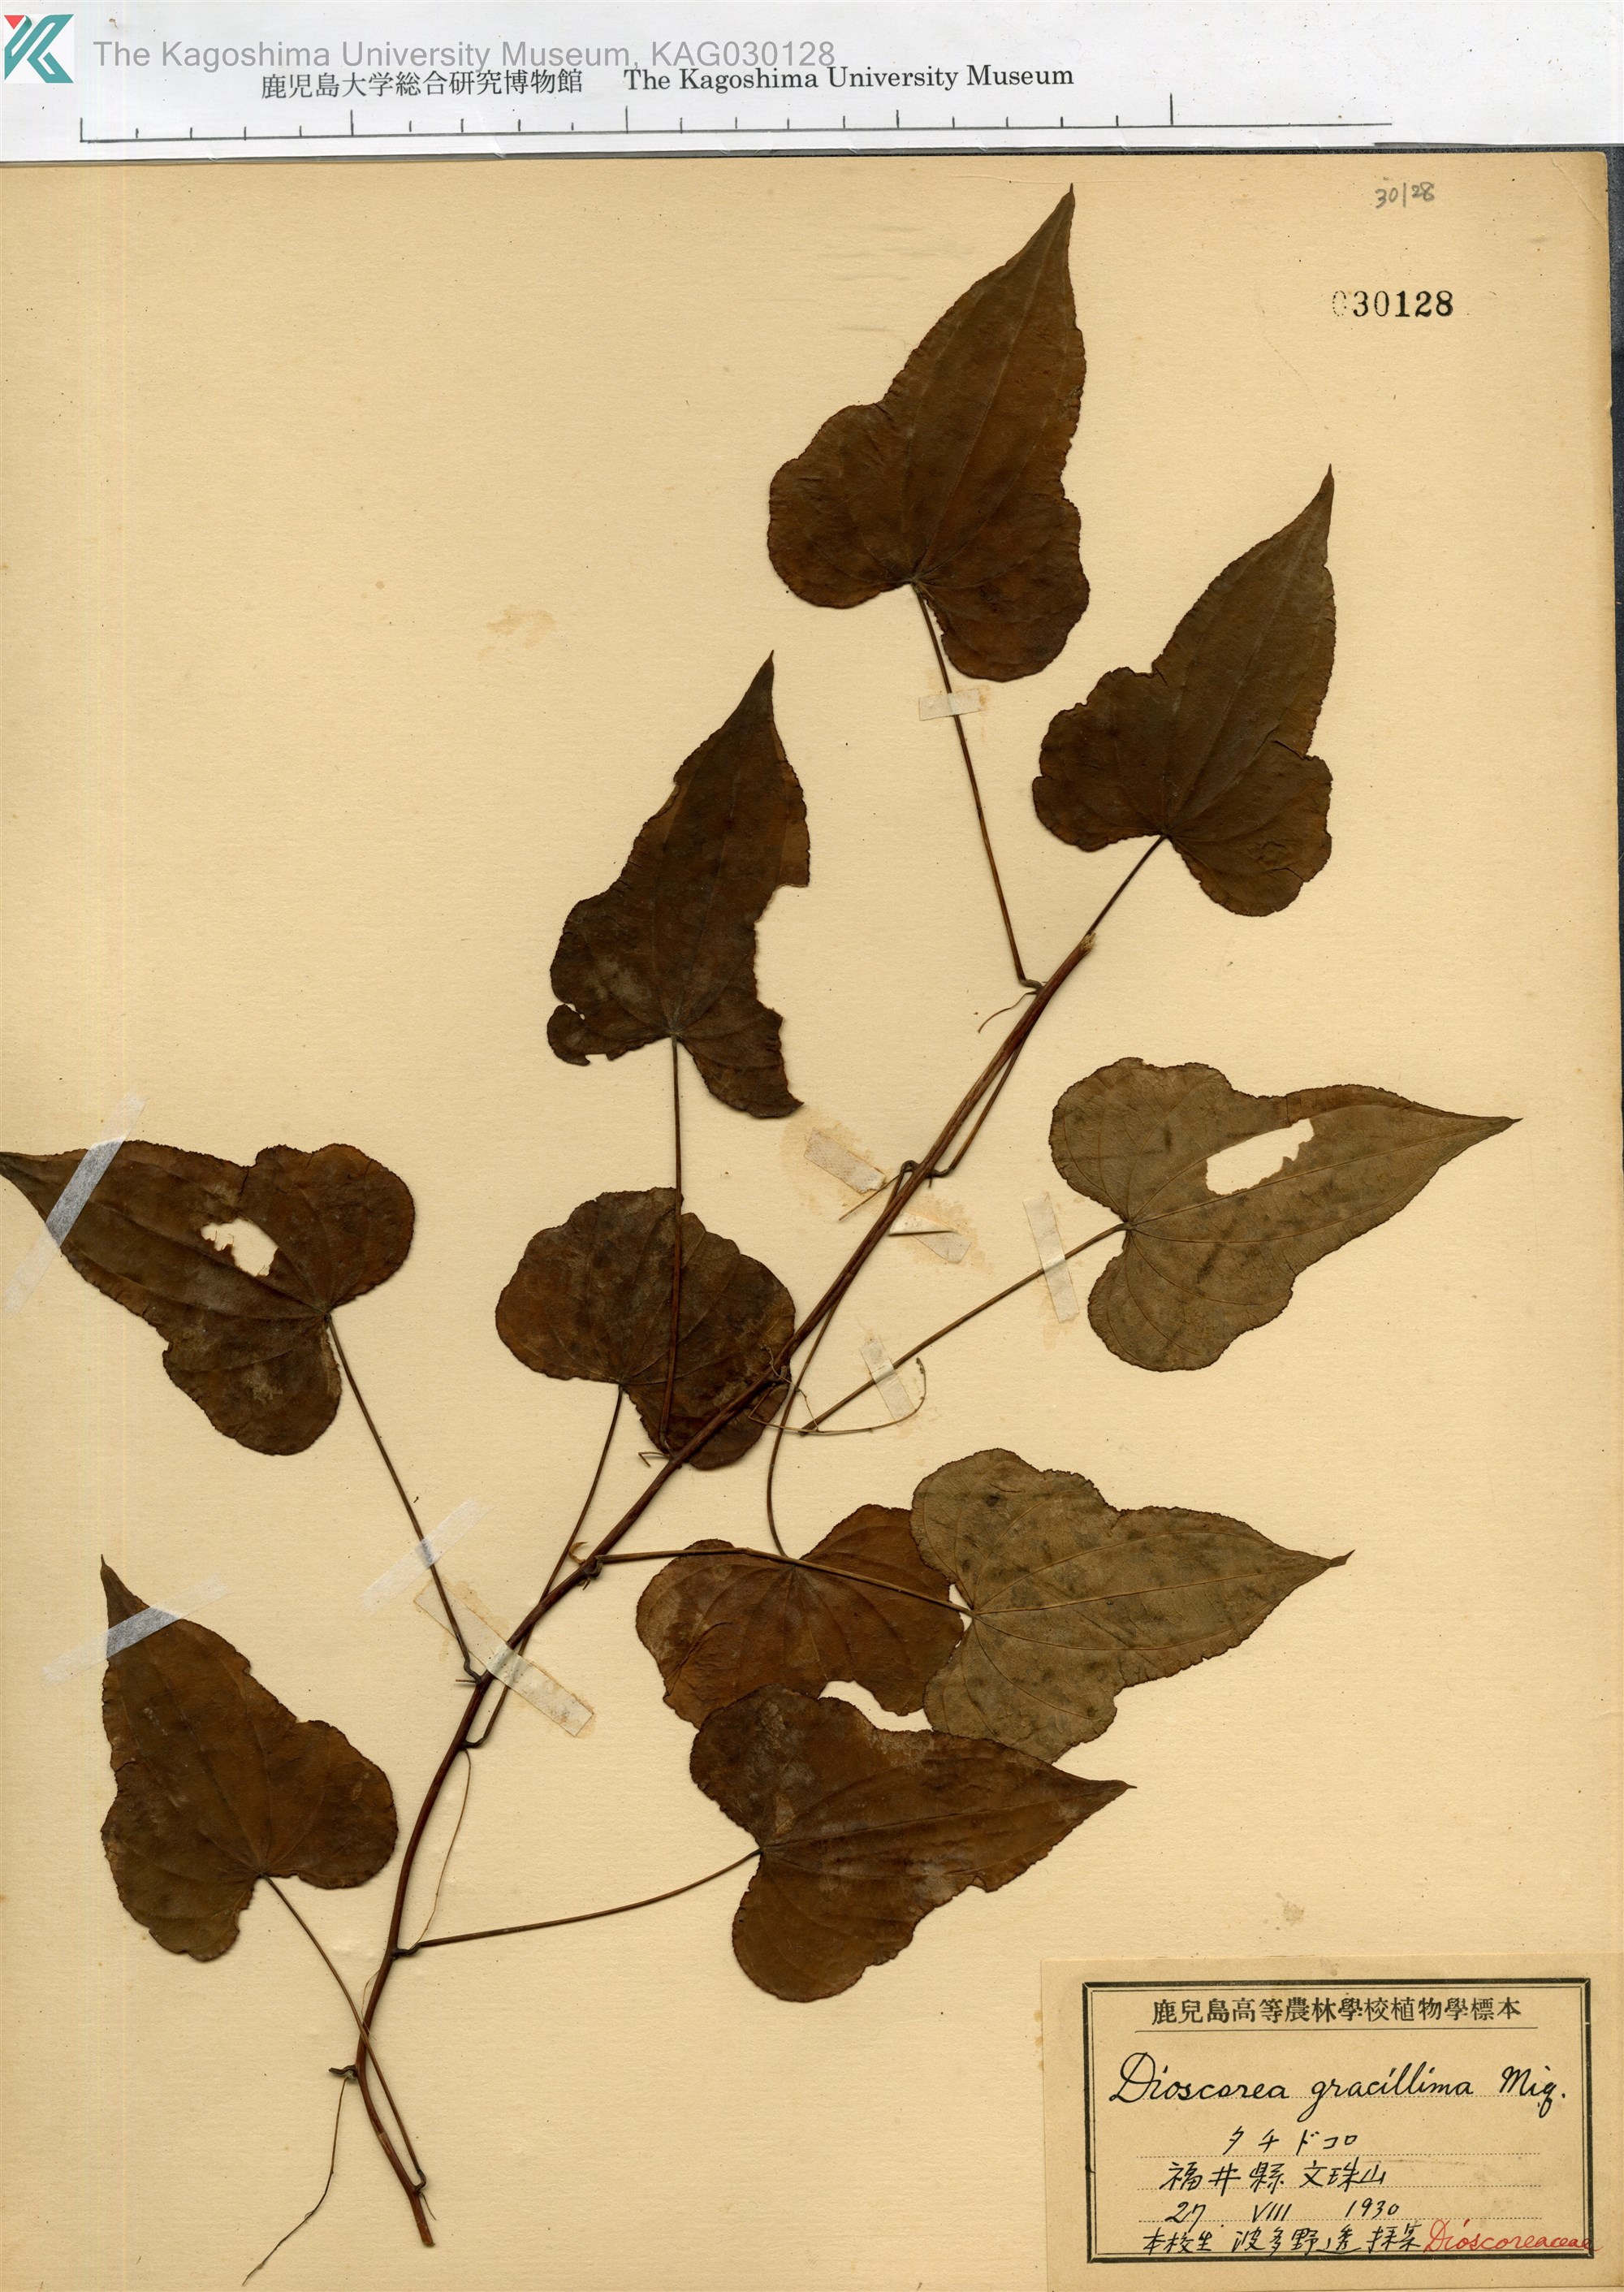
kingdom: Plantae
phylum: Tracheophyta
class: Liliopsida
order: Dioscoreales
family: Dioscoreaceae
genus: Dioscorea
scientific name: Dioscorea gracillima
